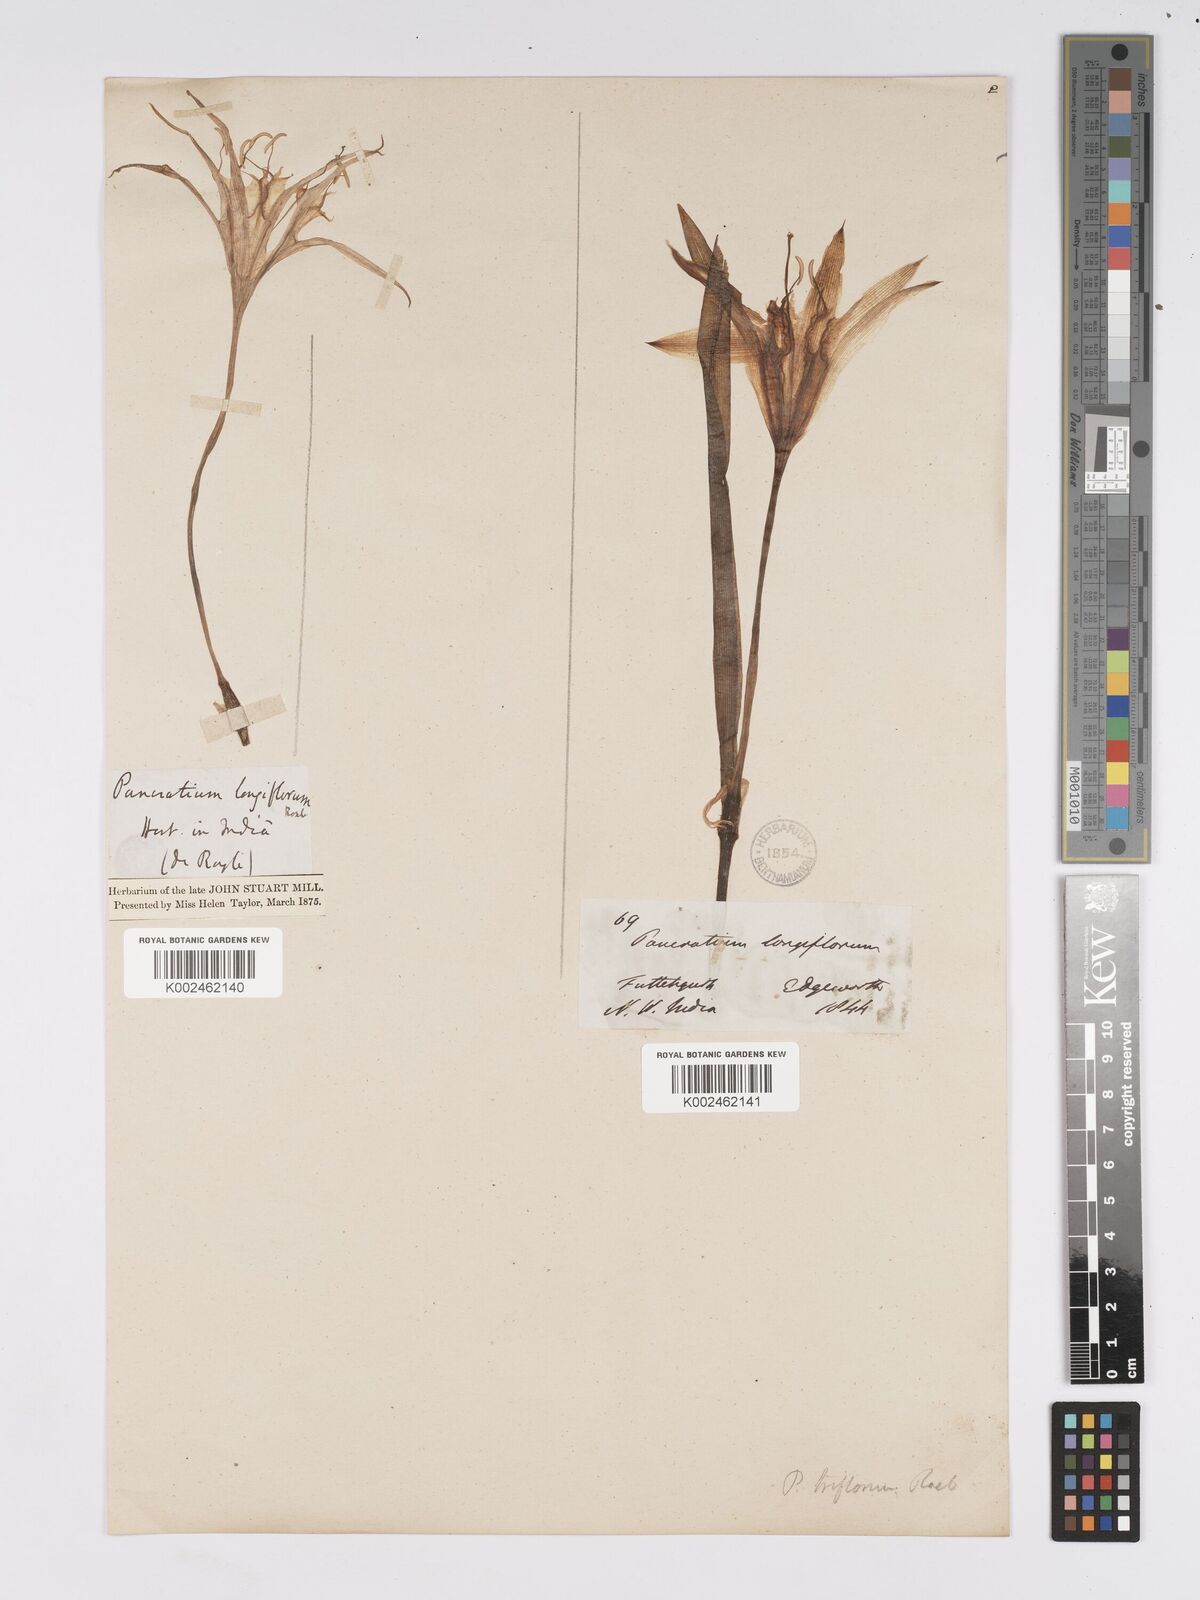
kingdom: Plantae
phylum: Tracheophyta
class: Liliopsida
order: Asparagales
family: Amaryllidaceae
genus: Pancratium
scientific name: Pancratium longiflorum
